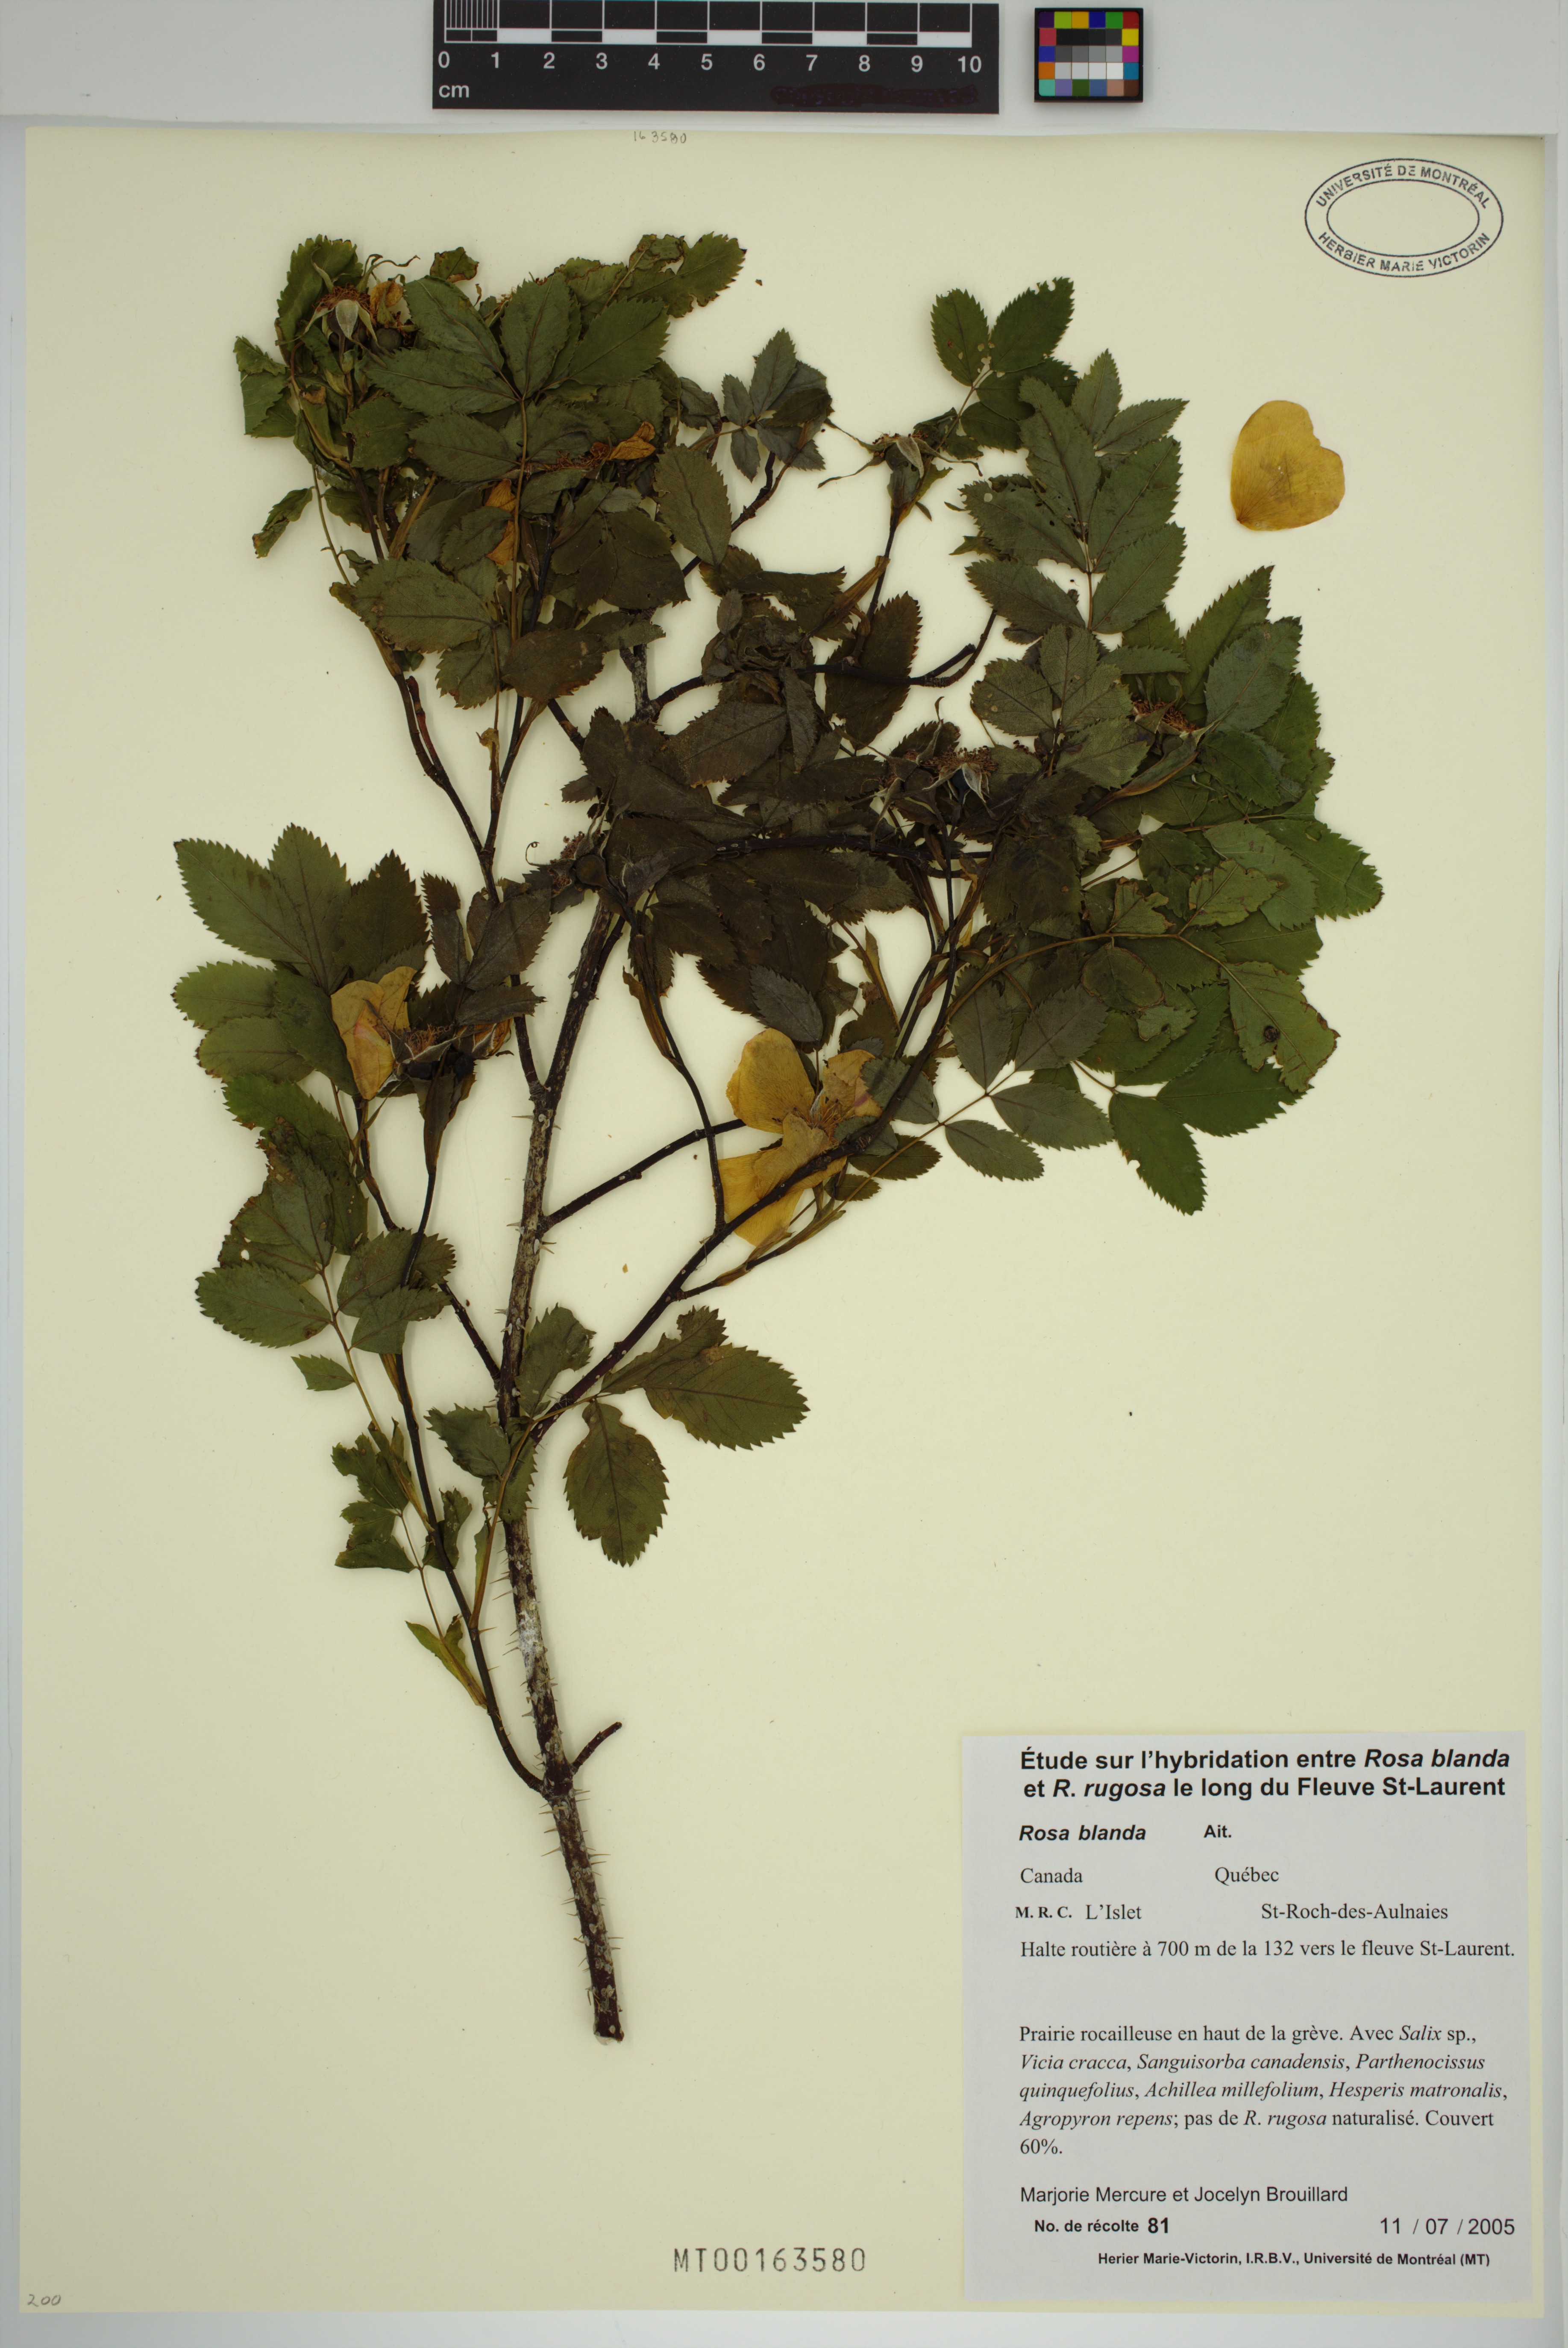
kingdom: Plantae
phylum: Tracheophyta
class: Magnoliopsida
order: Rosales
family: Rosaceae
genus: Rosa
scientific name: Rosa blanda
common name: Smooth rose
